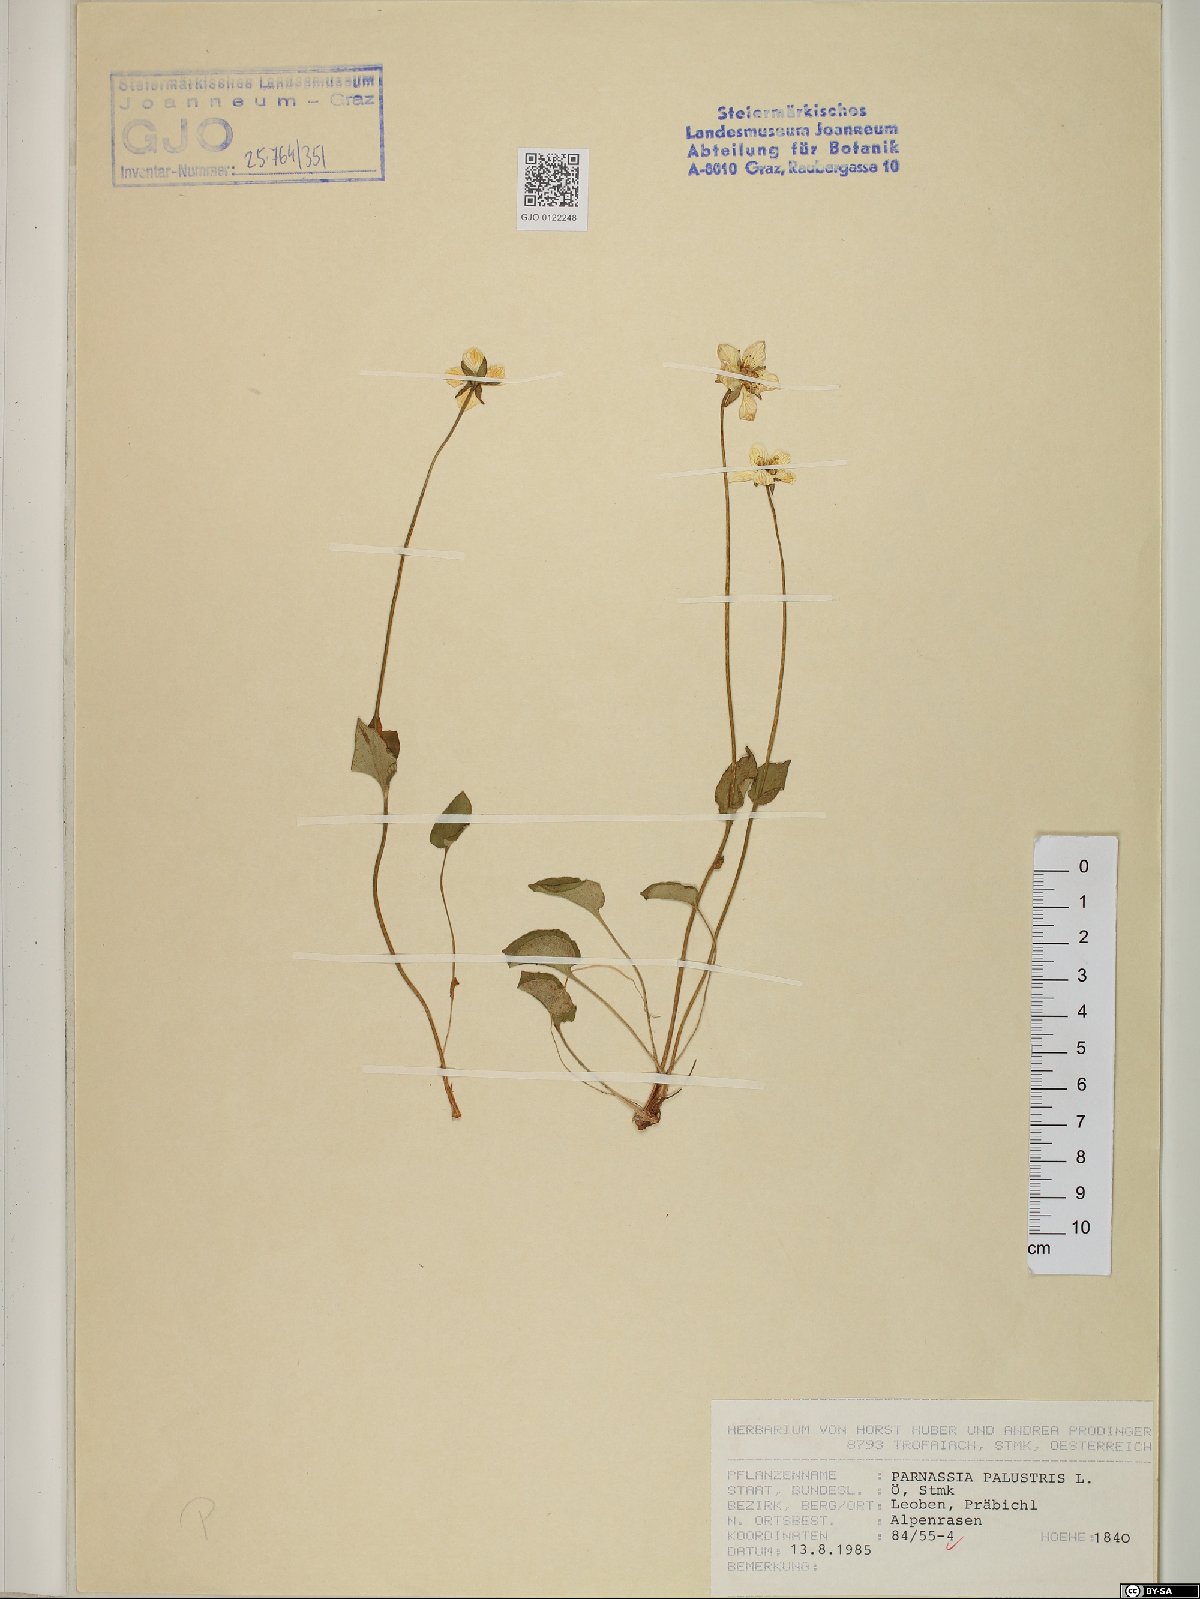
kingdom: Plantae
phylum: Tracheophyta
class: Magnoliopsida
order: Celastrales
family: Parnassiaceae
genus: Parnassia
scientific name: Parnassia palustris
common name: Grass-of-parnassus
